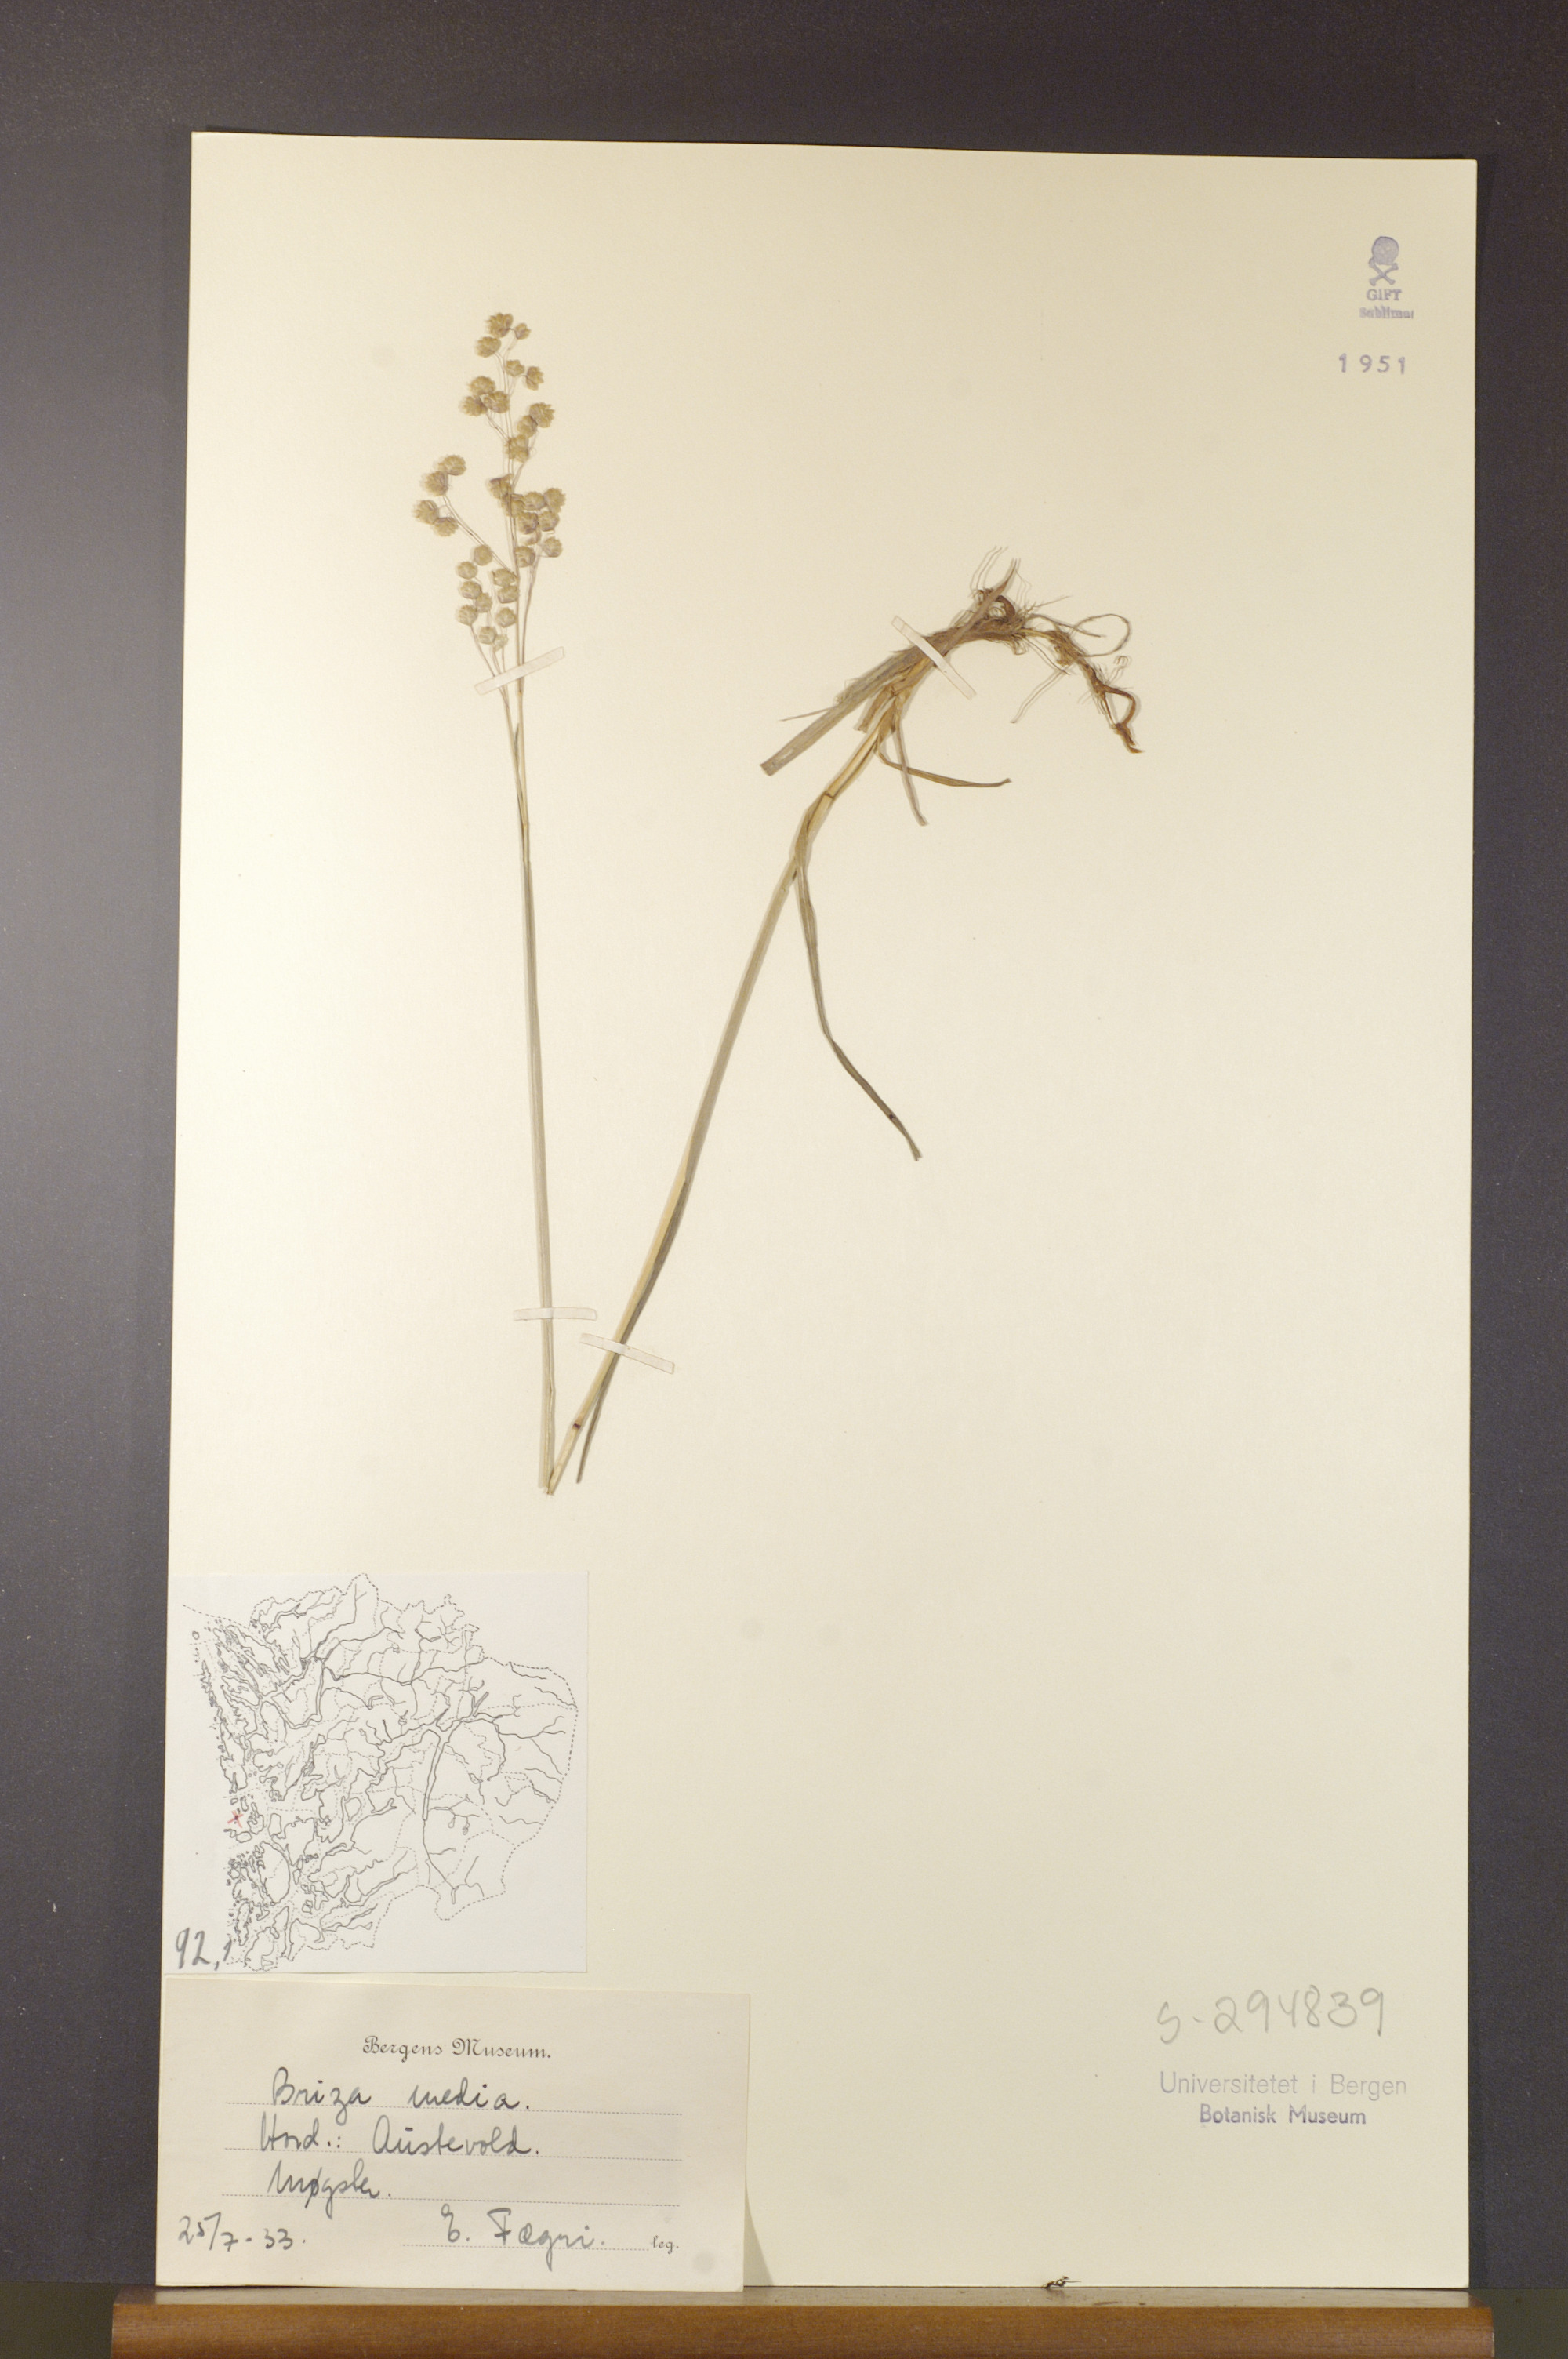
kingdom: Plantae
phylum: Tracheophyta
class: Liliopsida
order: Poales
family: Poaceae
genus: Briza
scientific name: Briza media
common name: Quaking grass
